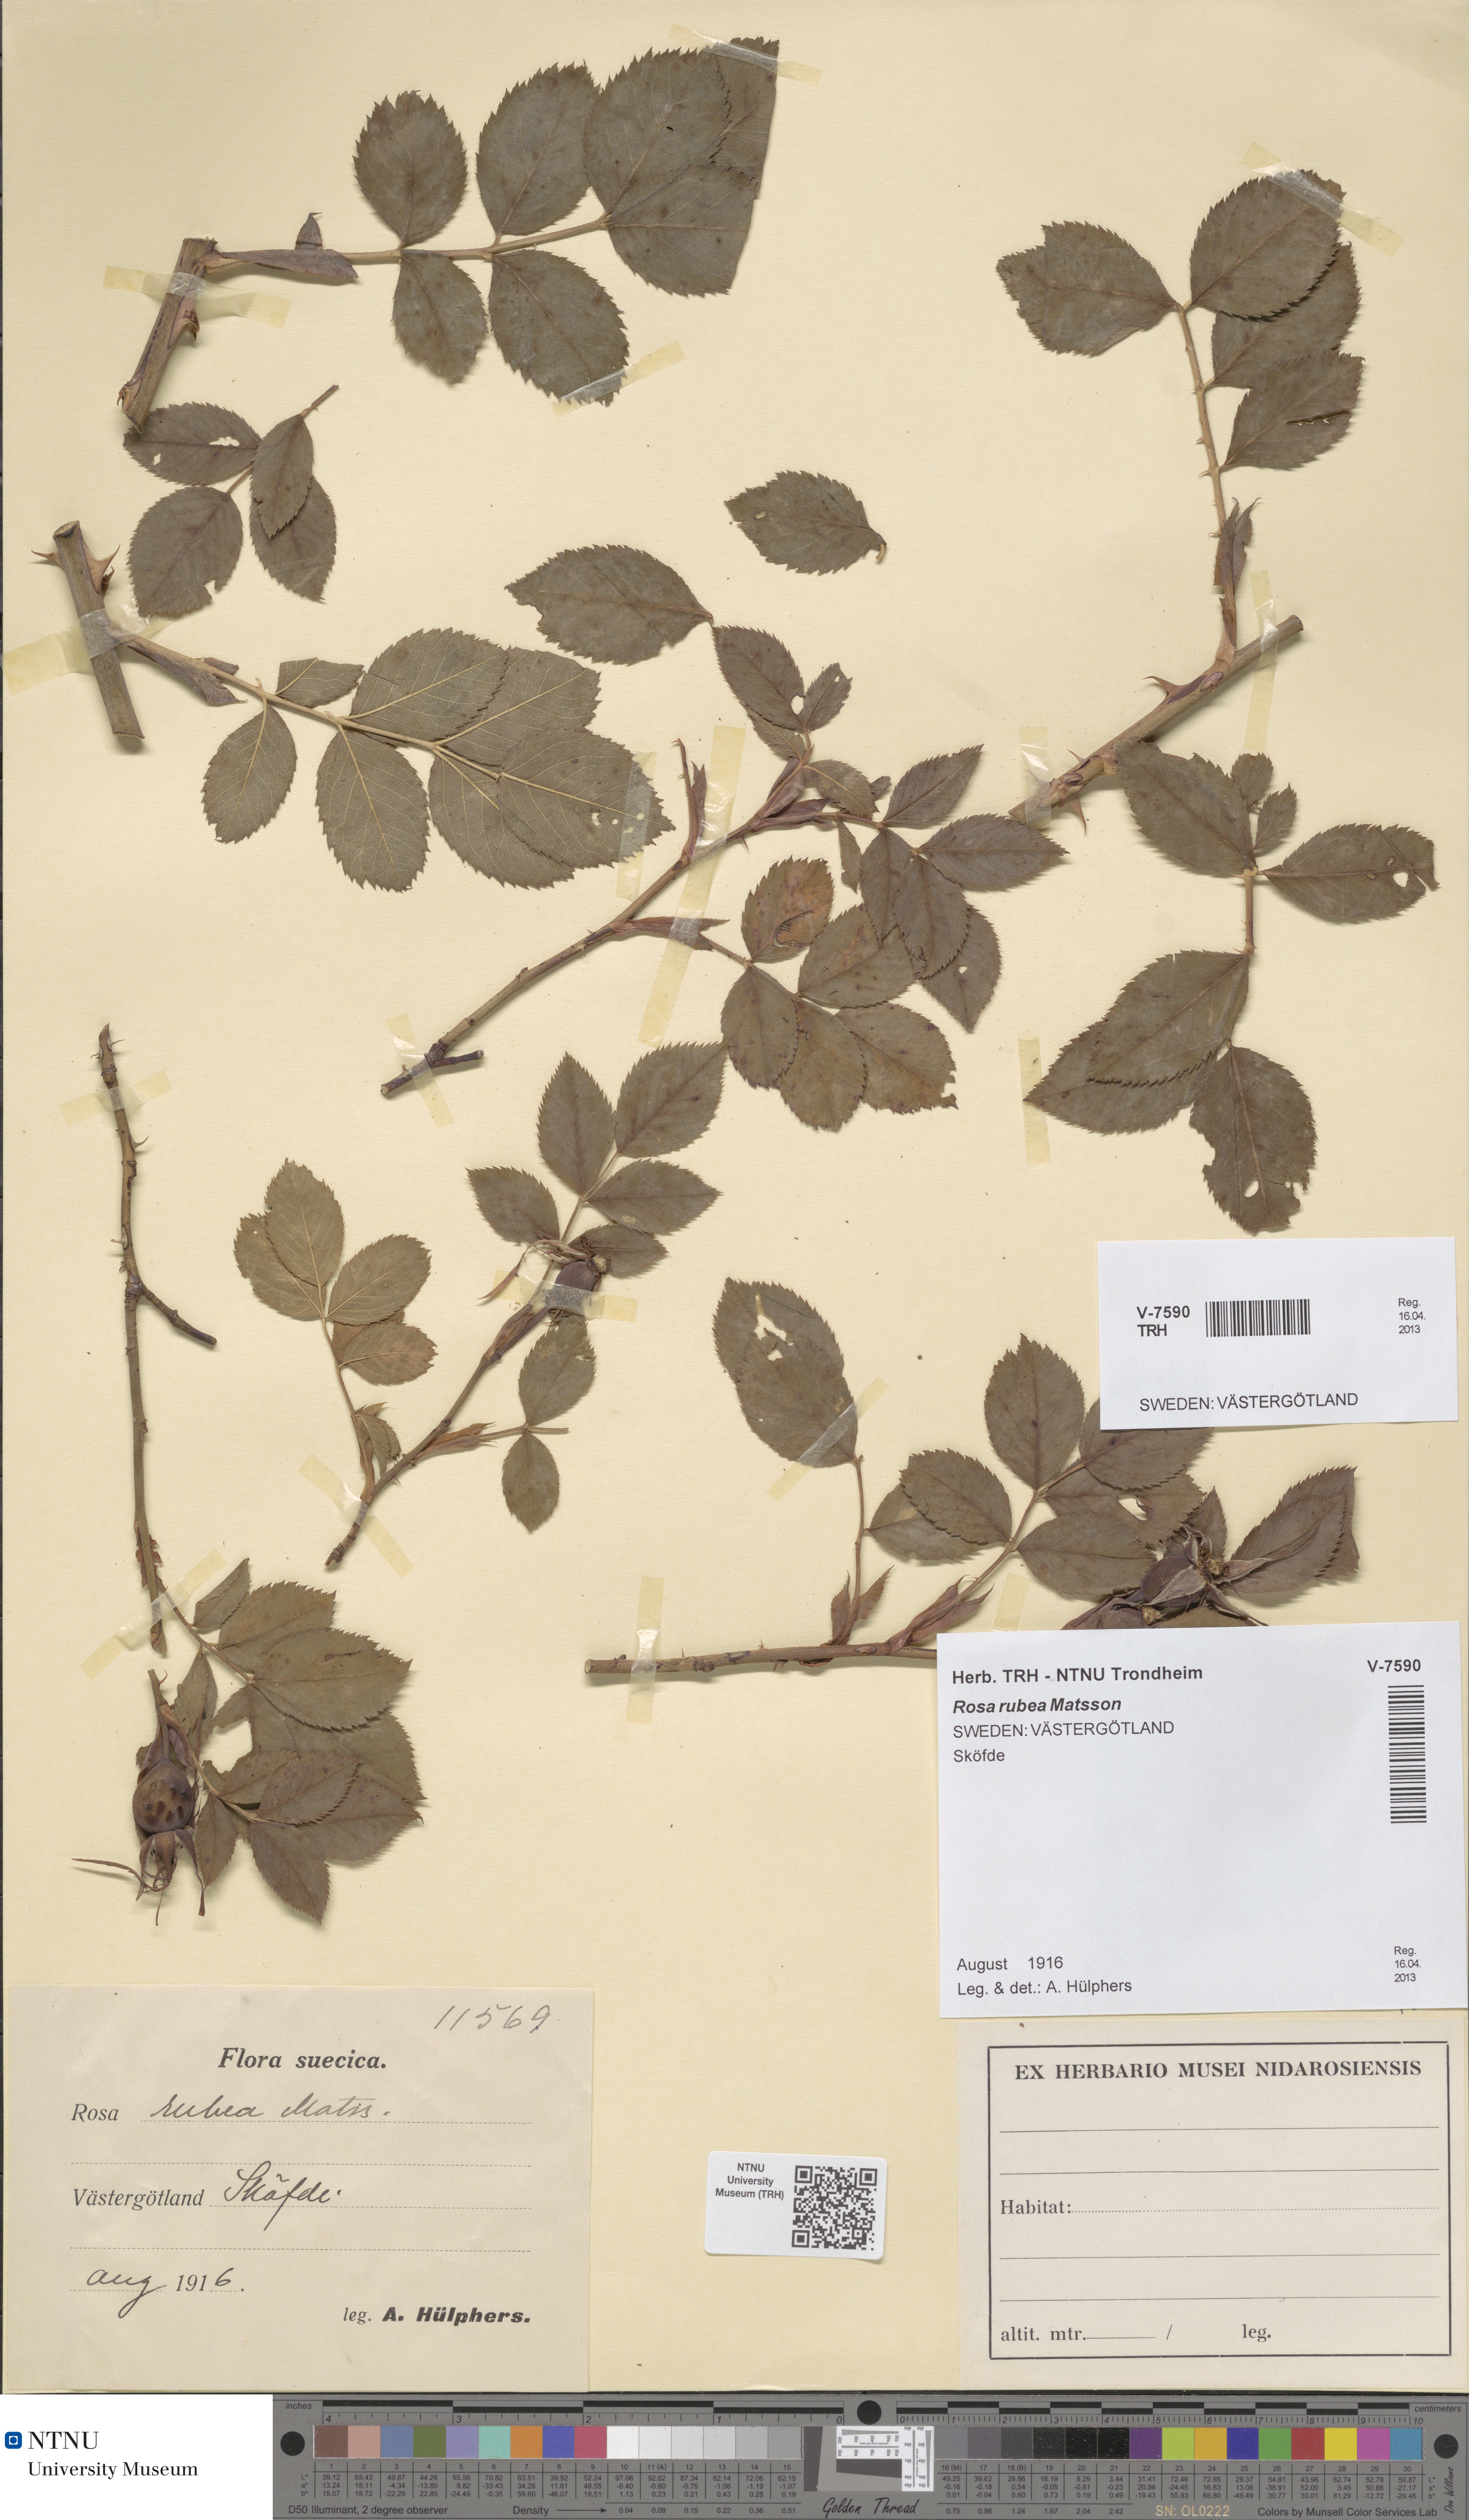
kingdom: Plantae
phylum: Tracheophyta
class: Magnoliopsida
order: Rosales
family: Rosaceae
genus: Rosa
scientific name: Rosa rubea
